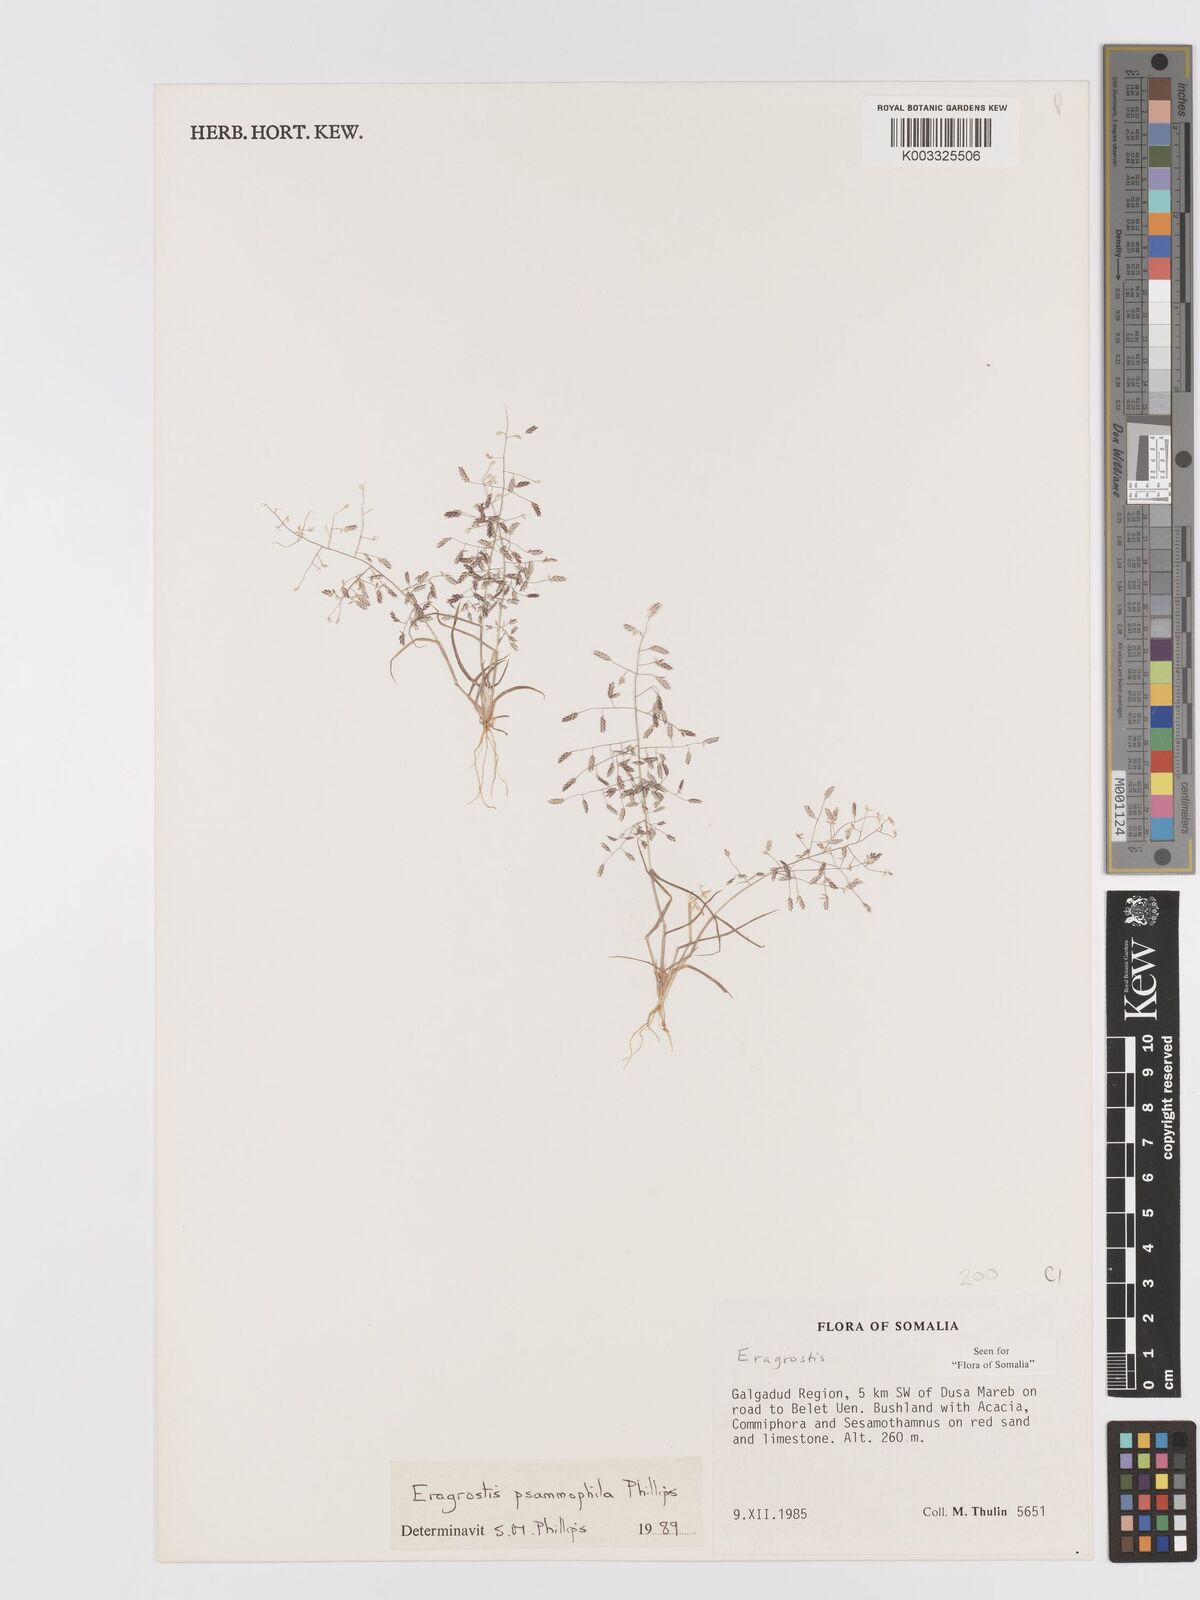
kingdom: Plantae
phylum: Tracheophyta
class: Liliopsida
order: Poales
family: Poaceae
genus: Eragrostis
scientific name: Eragrostis psammophila
